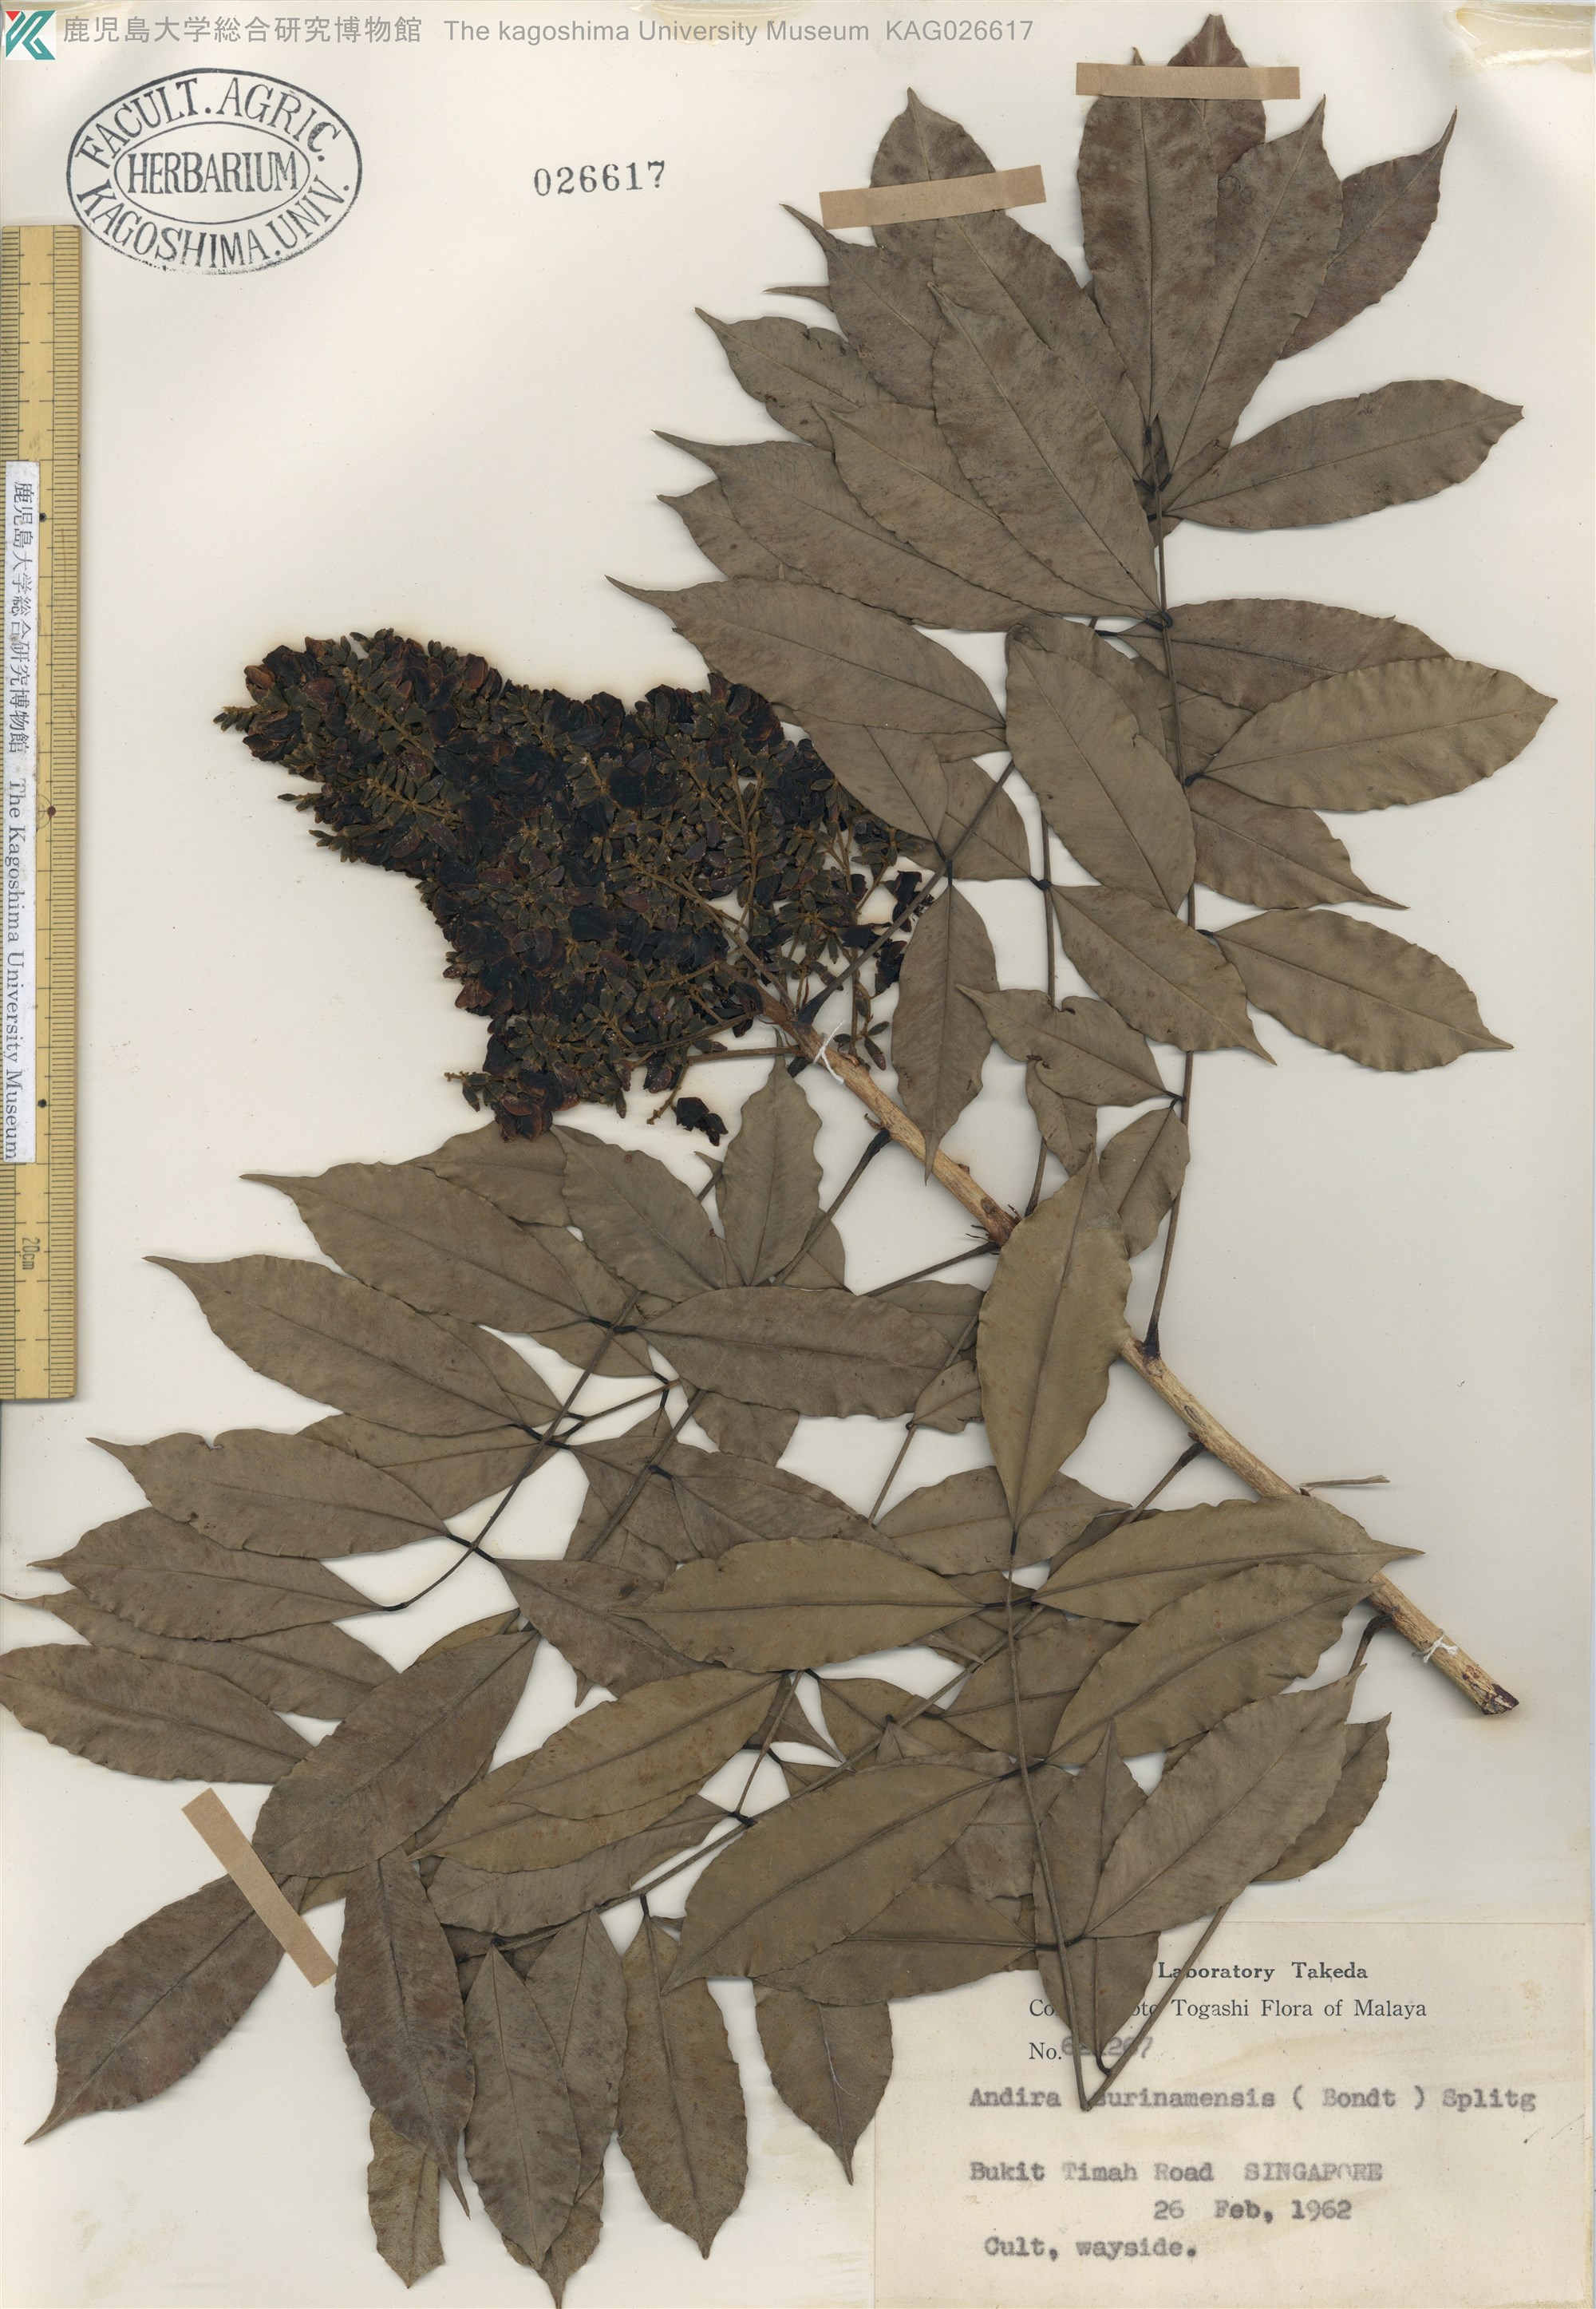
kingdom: Plantae
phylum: Tracheophyta
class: Magnoliopsida
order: Fabales
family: Fabaceae
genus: Andira
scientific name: Andira surinamensis
